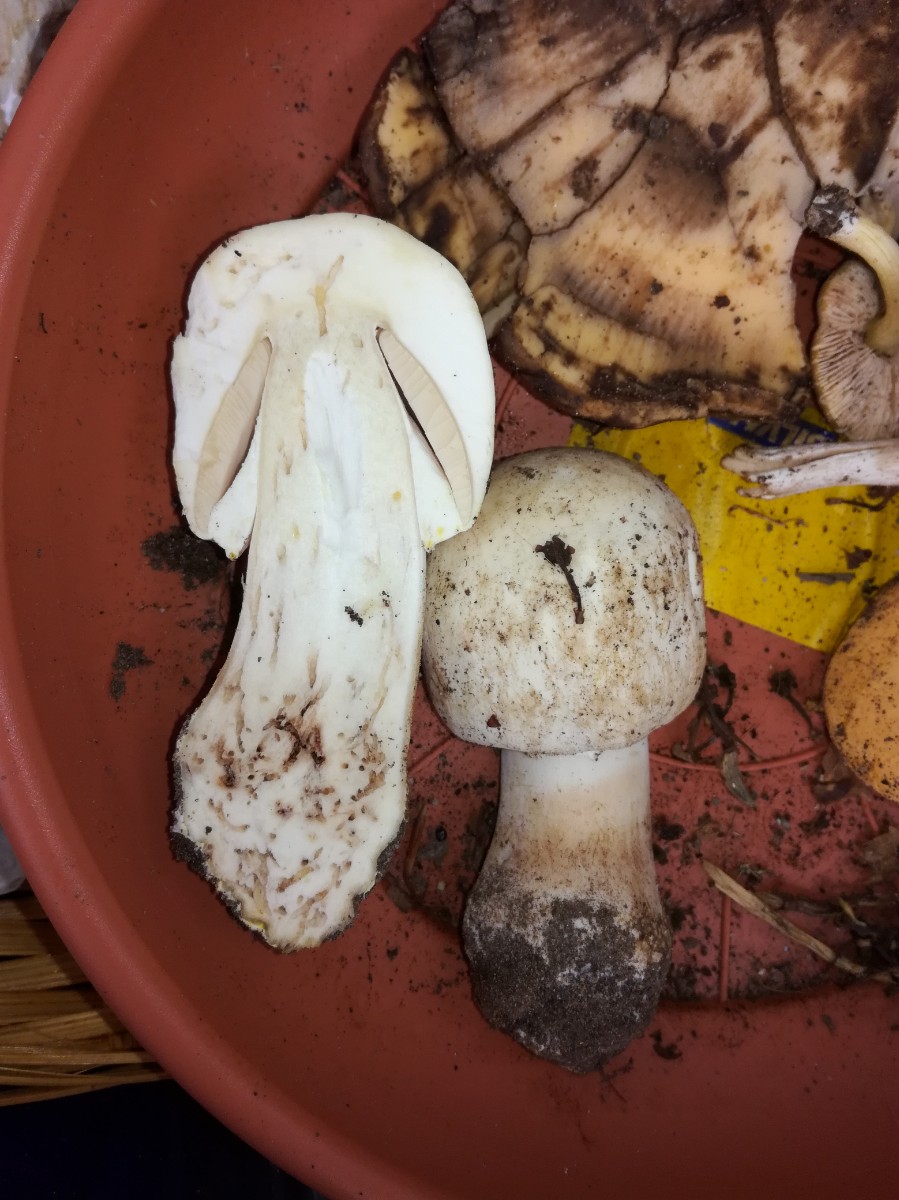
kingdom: Fungi
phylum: Basidiomycota
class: Agaricomycetes
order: Agaricales
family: Agaricaceae
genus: Agaricus
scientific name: Agaricus
